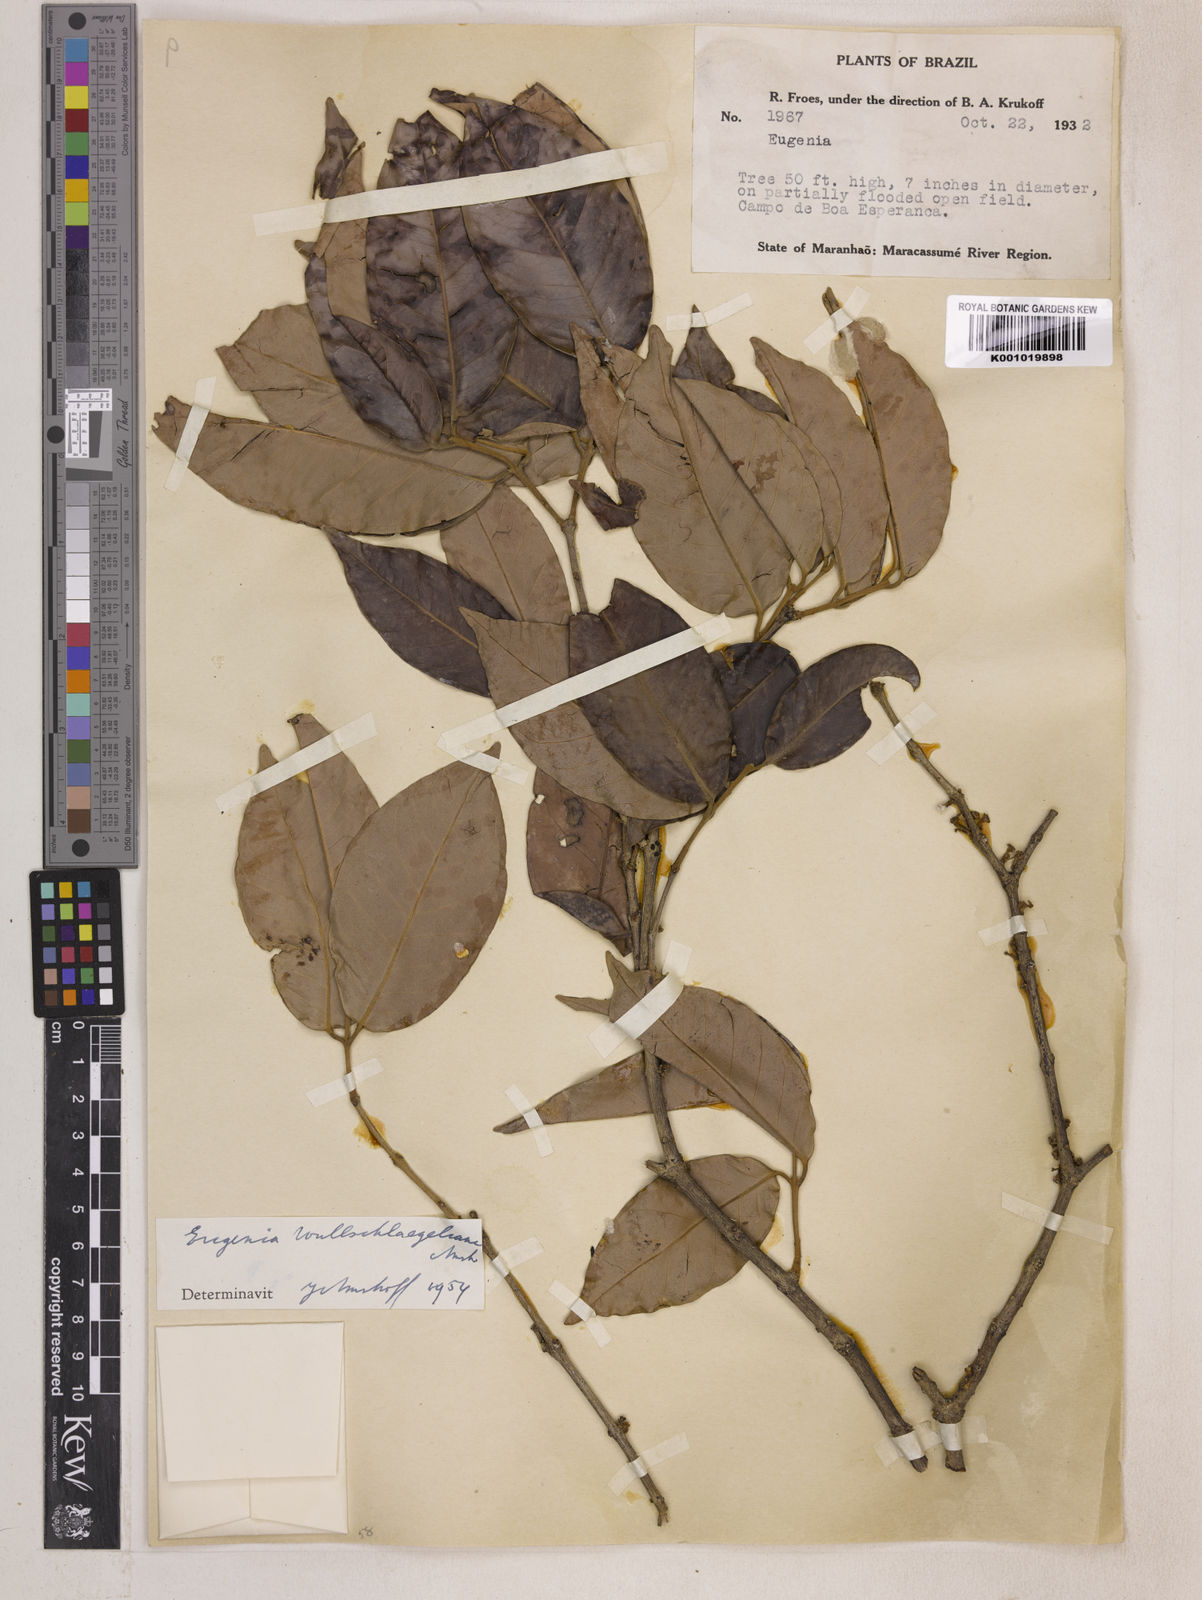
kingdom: Plantae
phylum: Tracheophyta
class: Magnoliopsida
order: Myrtales
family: Myrtaceae
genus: Eugenia
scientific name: Eugenia wullschlaegeliana
